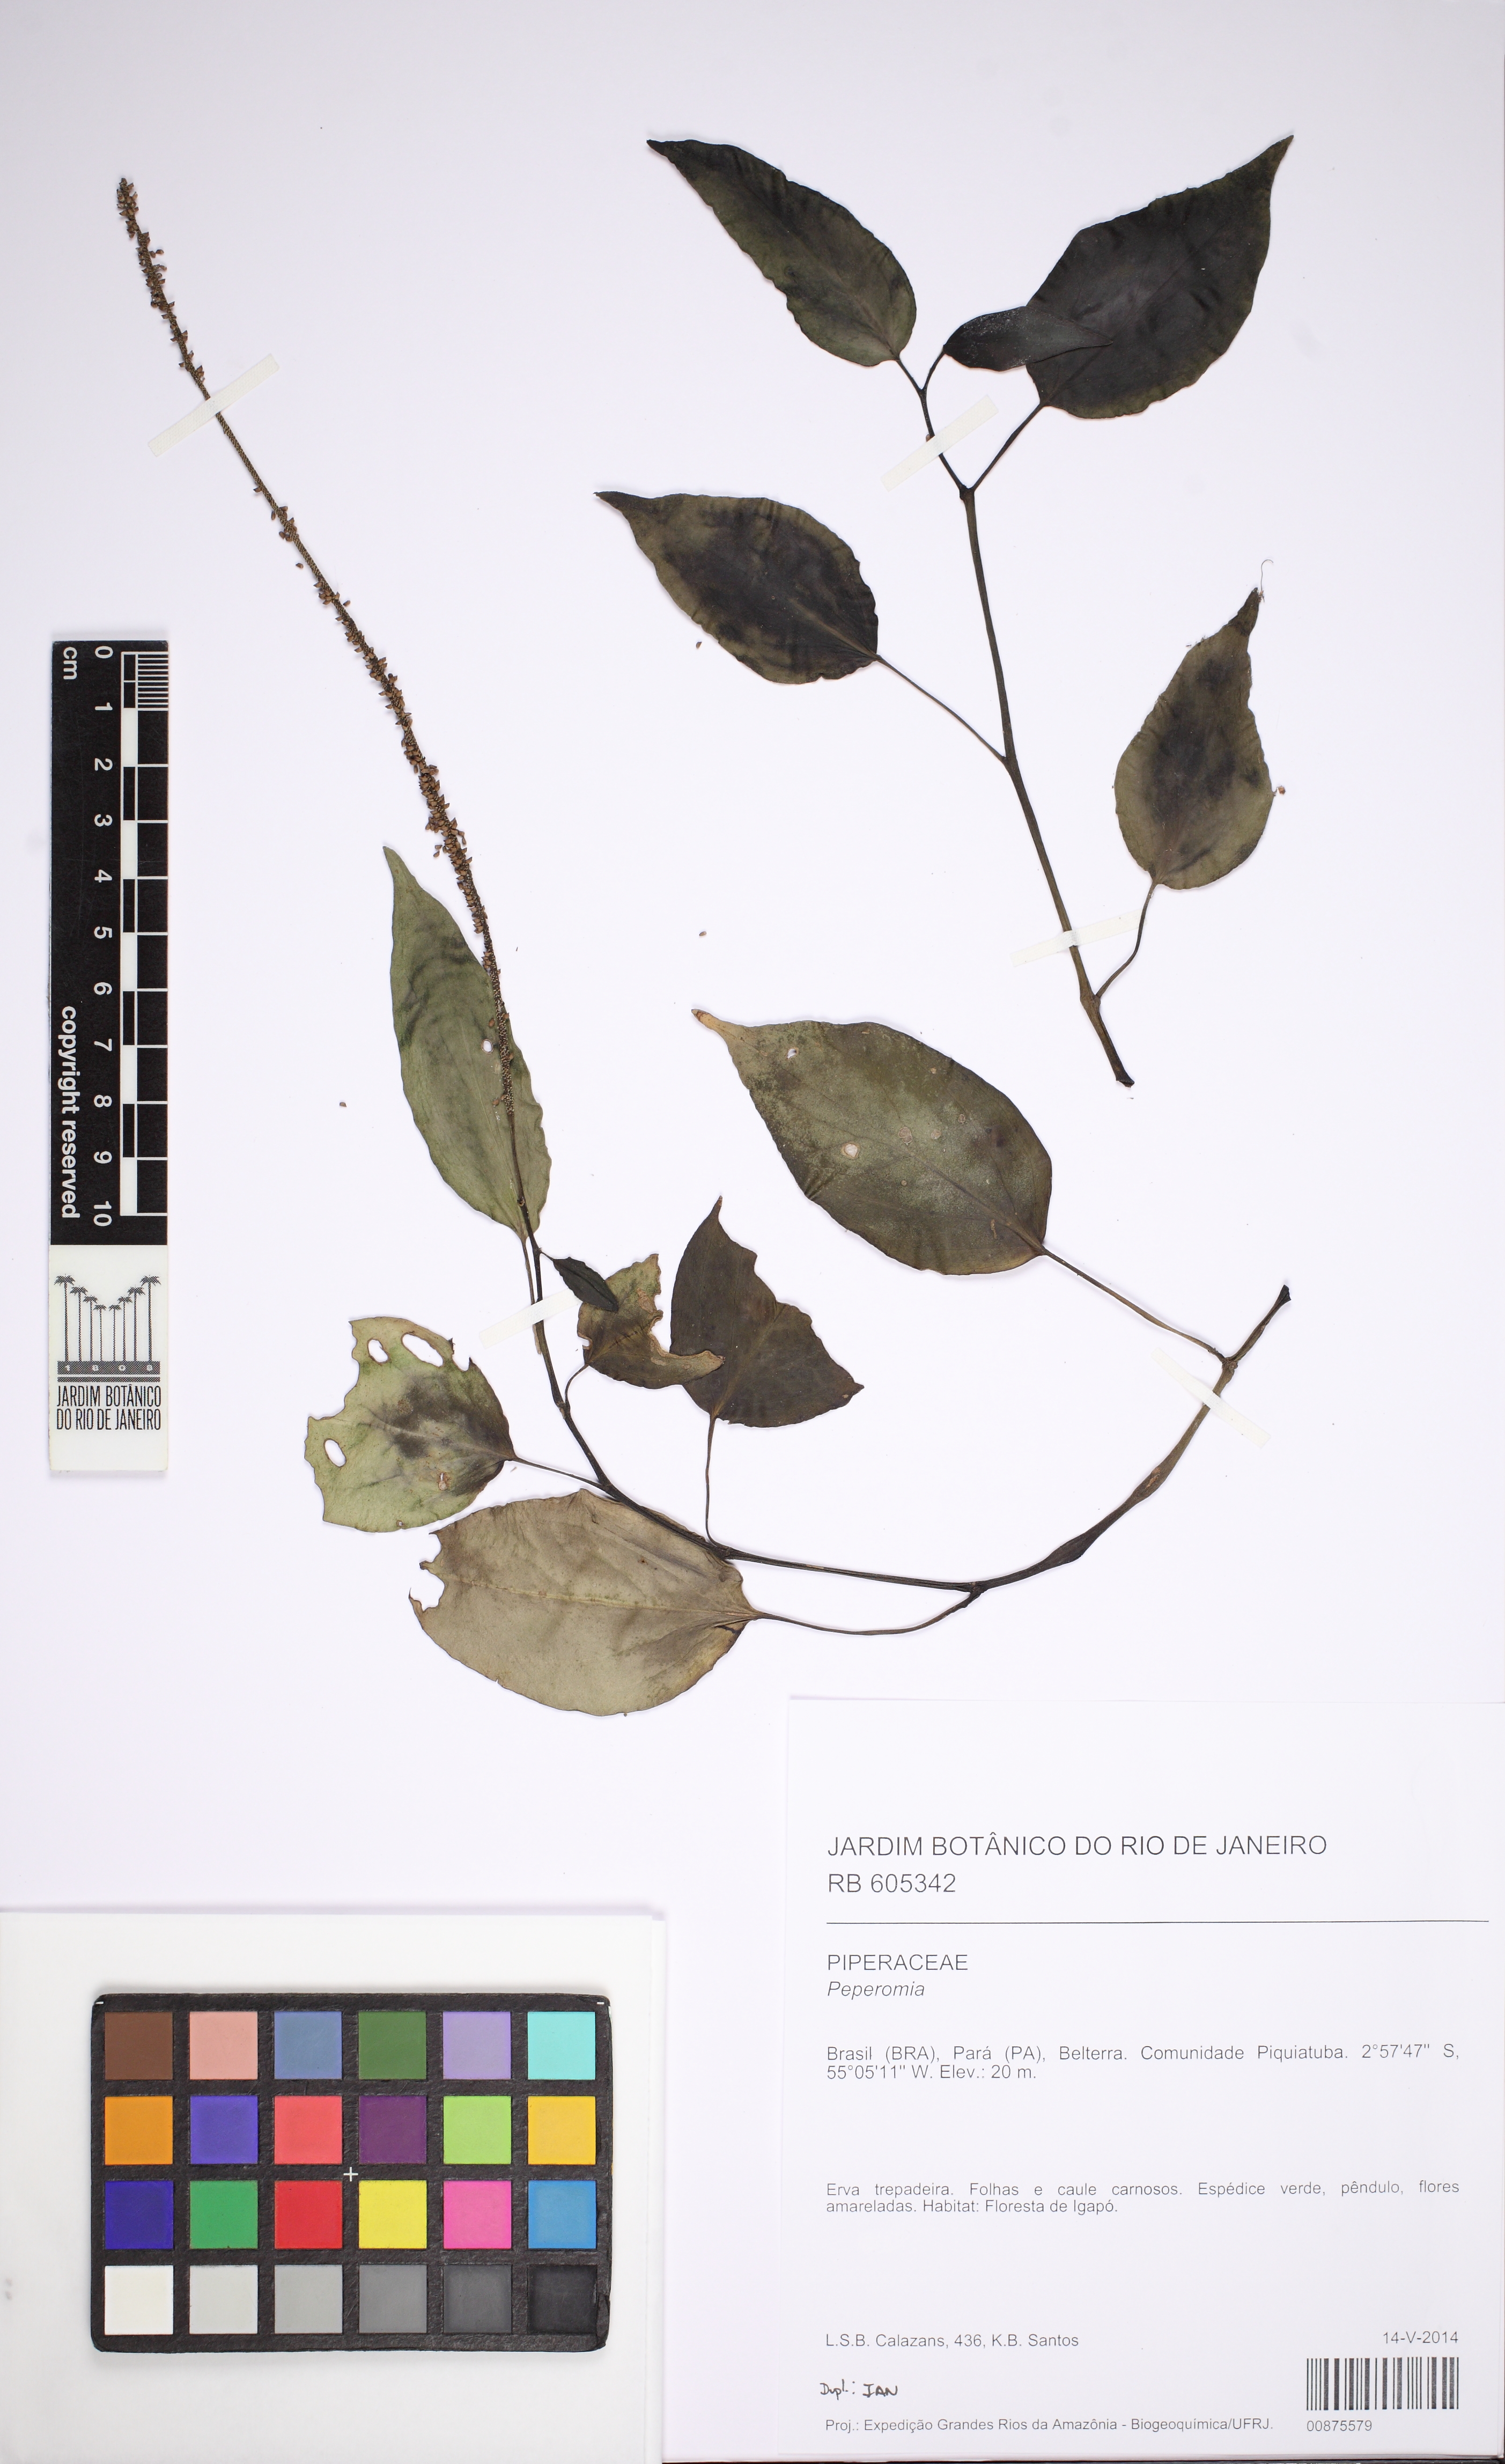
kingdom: Plantae
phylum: Tracheophyta
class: Magnoliopsida
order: Piperales
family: Piperaceae
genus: Peperomia
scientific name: Peperomia macrostachyos
